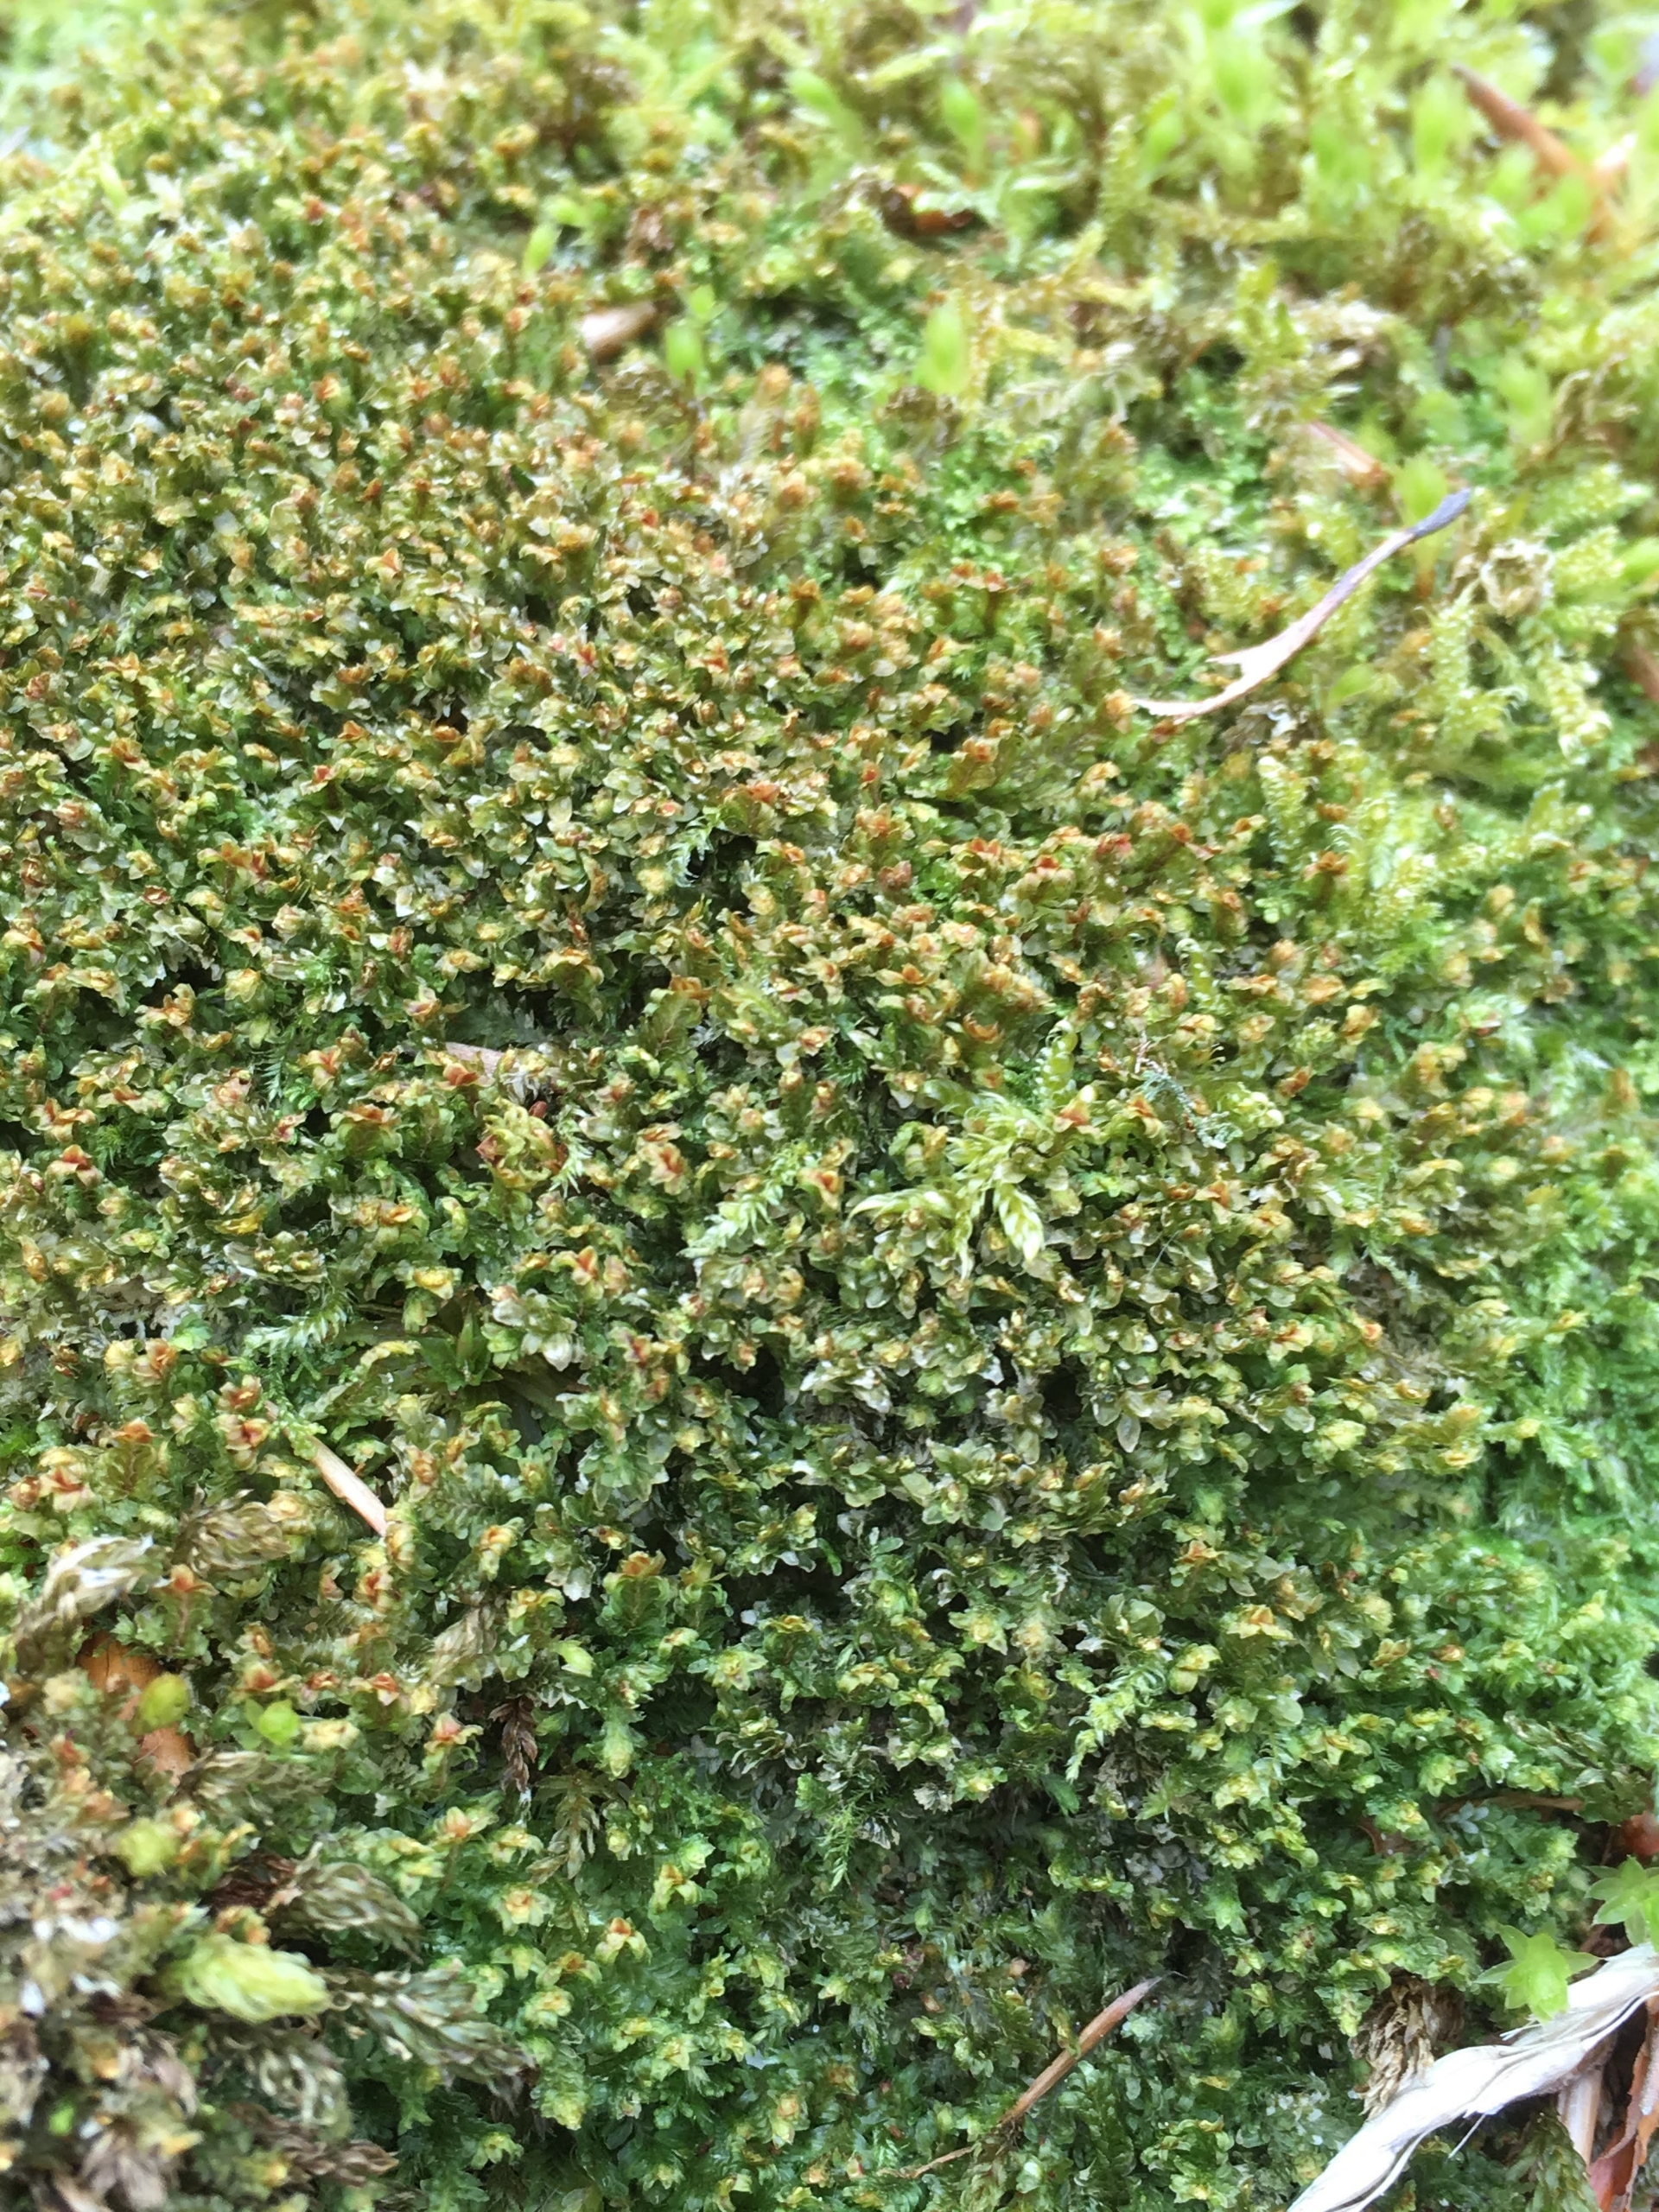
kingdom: Plantae
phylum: Marchantiophyta
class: Jungermanniopsida
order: Jungermanniales
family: Scapaniaceae
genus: Diplophyllum
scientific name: Diplophyllum albicans
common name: Stribet dobbeltblad
